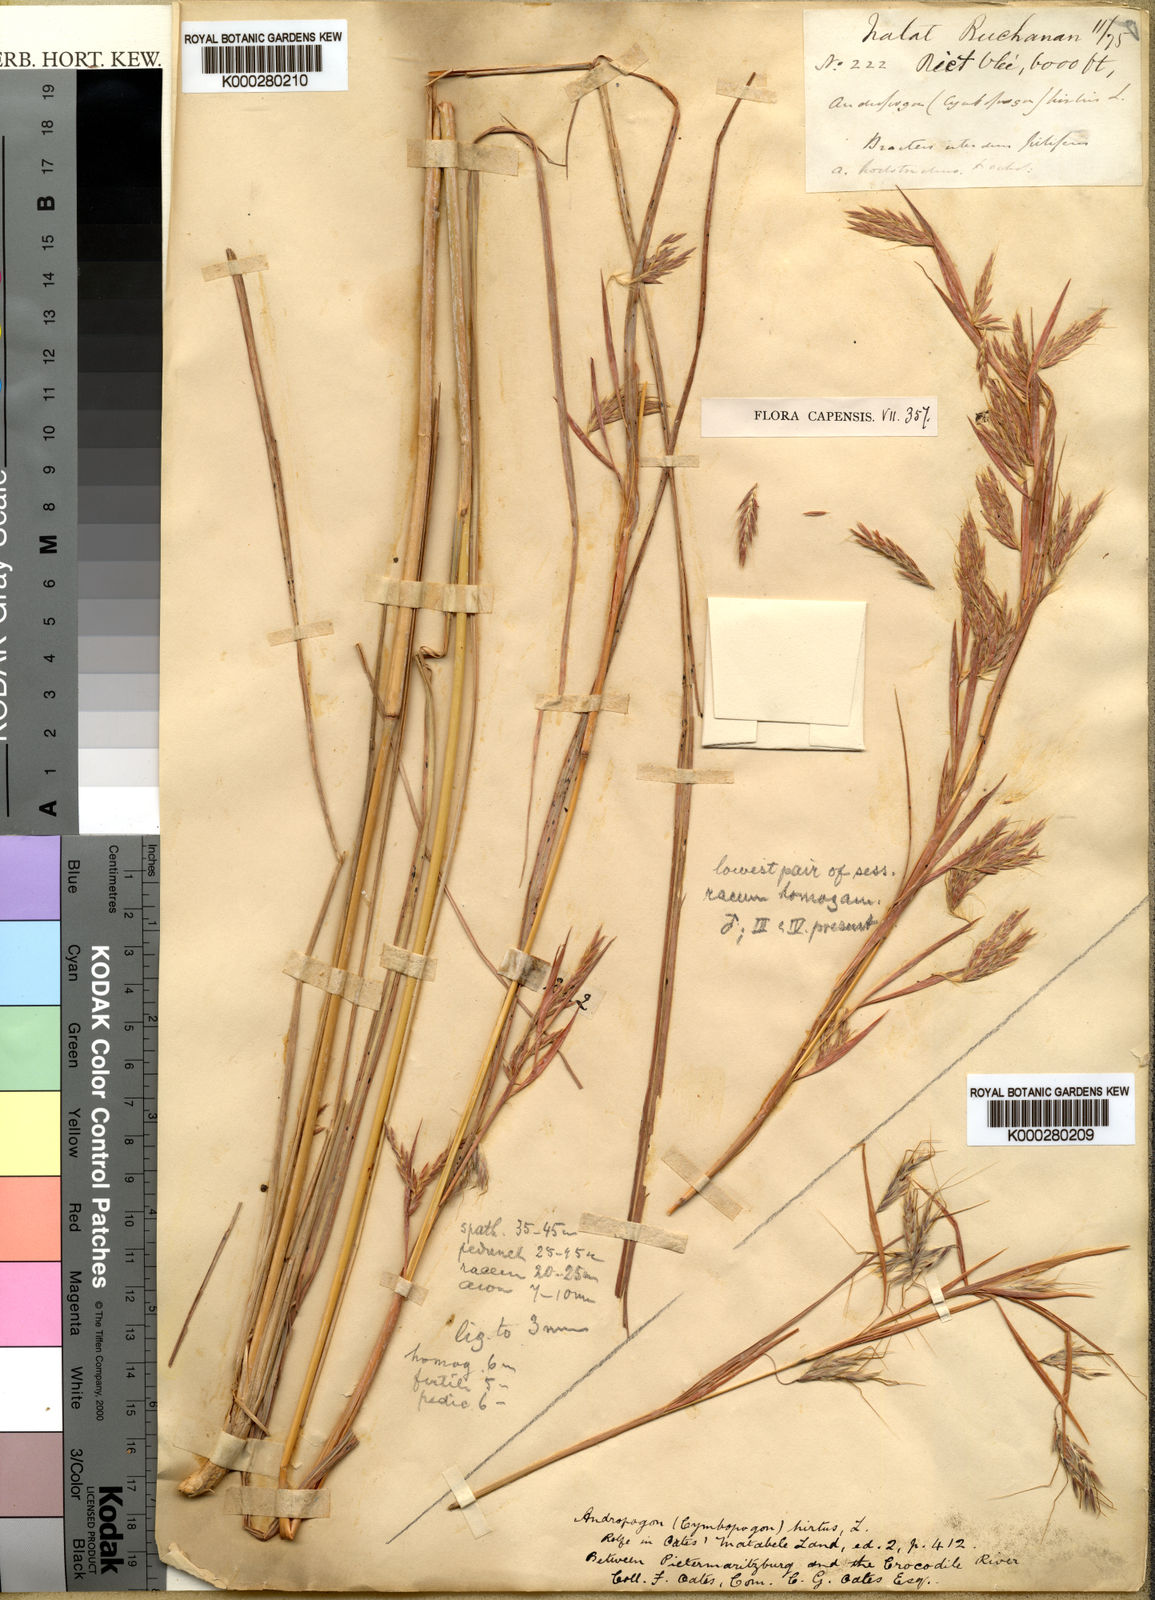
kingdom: Plantae
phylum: Tracheophyta
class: Liliopsida
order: Poales
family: Poaceae
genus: Hyparrhenia
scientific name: Hyparrhenia dregeana
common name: Silky thatching grass
